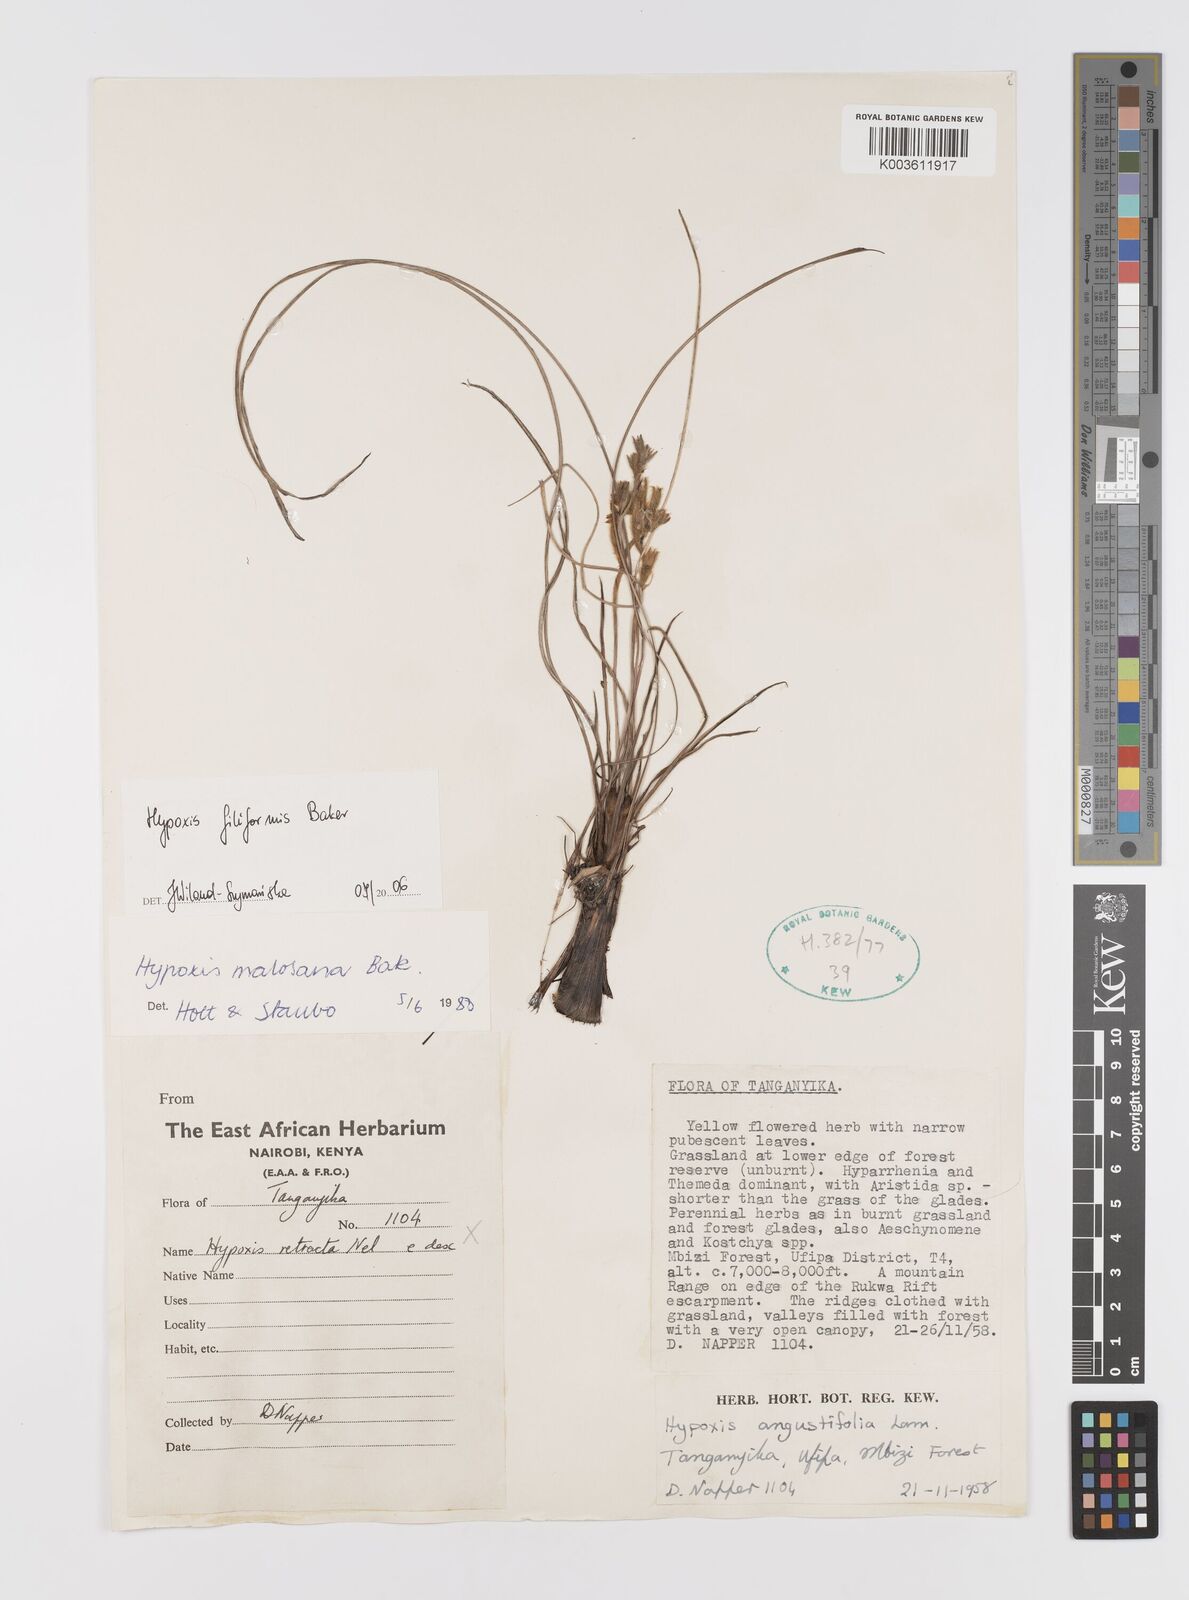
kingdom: Plantae
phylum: Tracheophyta
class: Liliopsida
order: Asparagales
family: Hypoxidaceae
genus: Hypoxis
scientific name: Hypoxis filiformis
